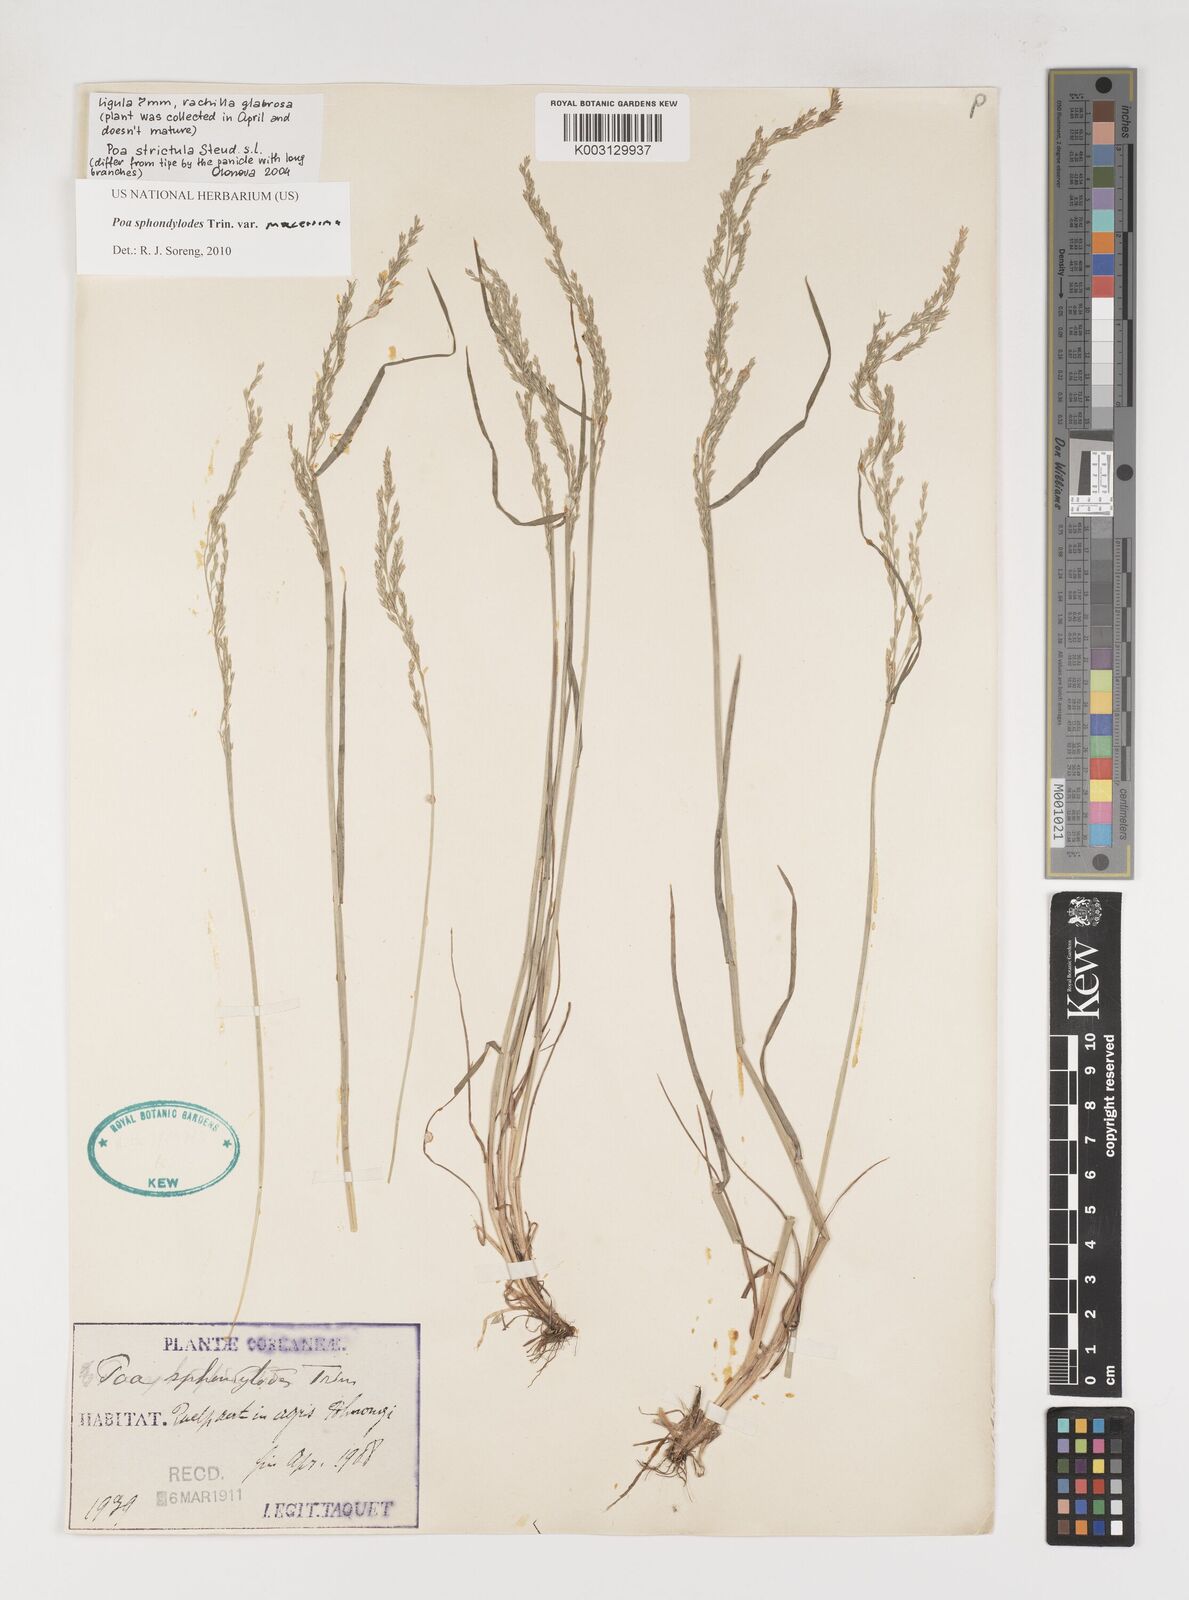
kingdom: Plantae
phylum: Tracheophyta
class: Liliopsida
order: Poales
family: Poaceae
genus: Poa
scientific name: Poa sphondylodes
